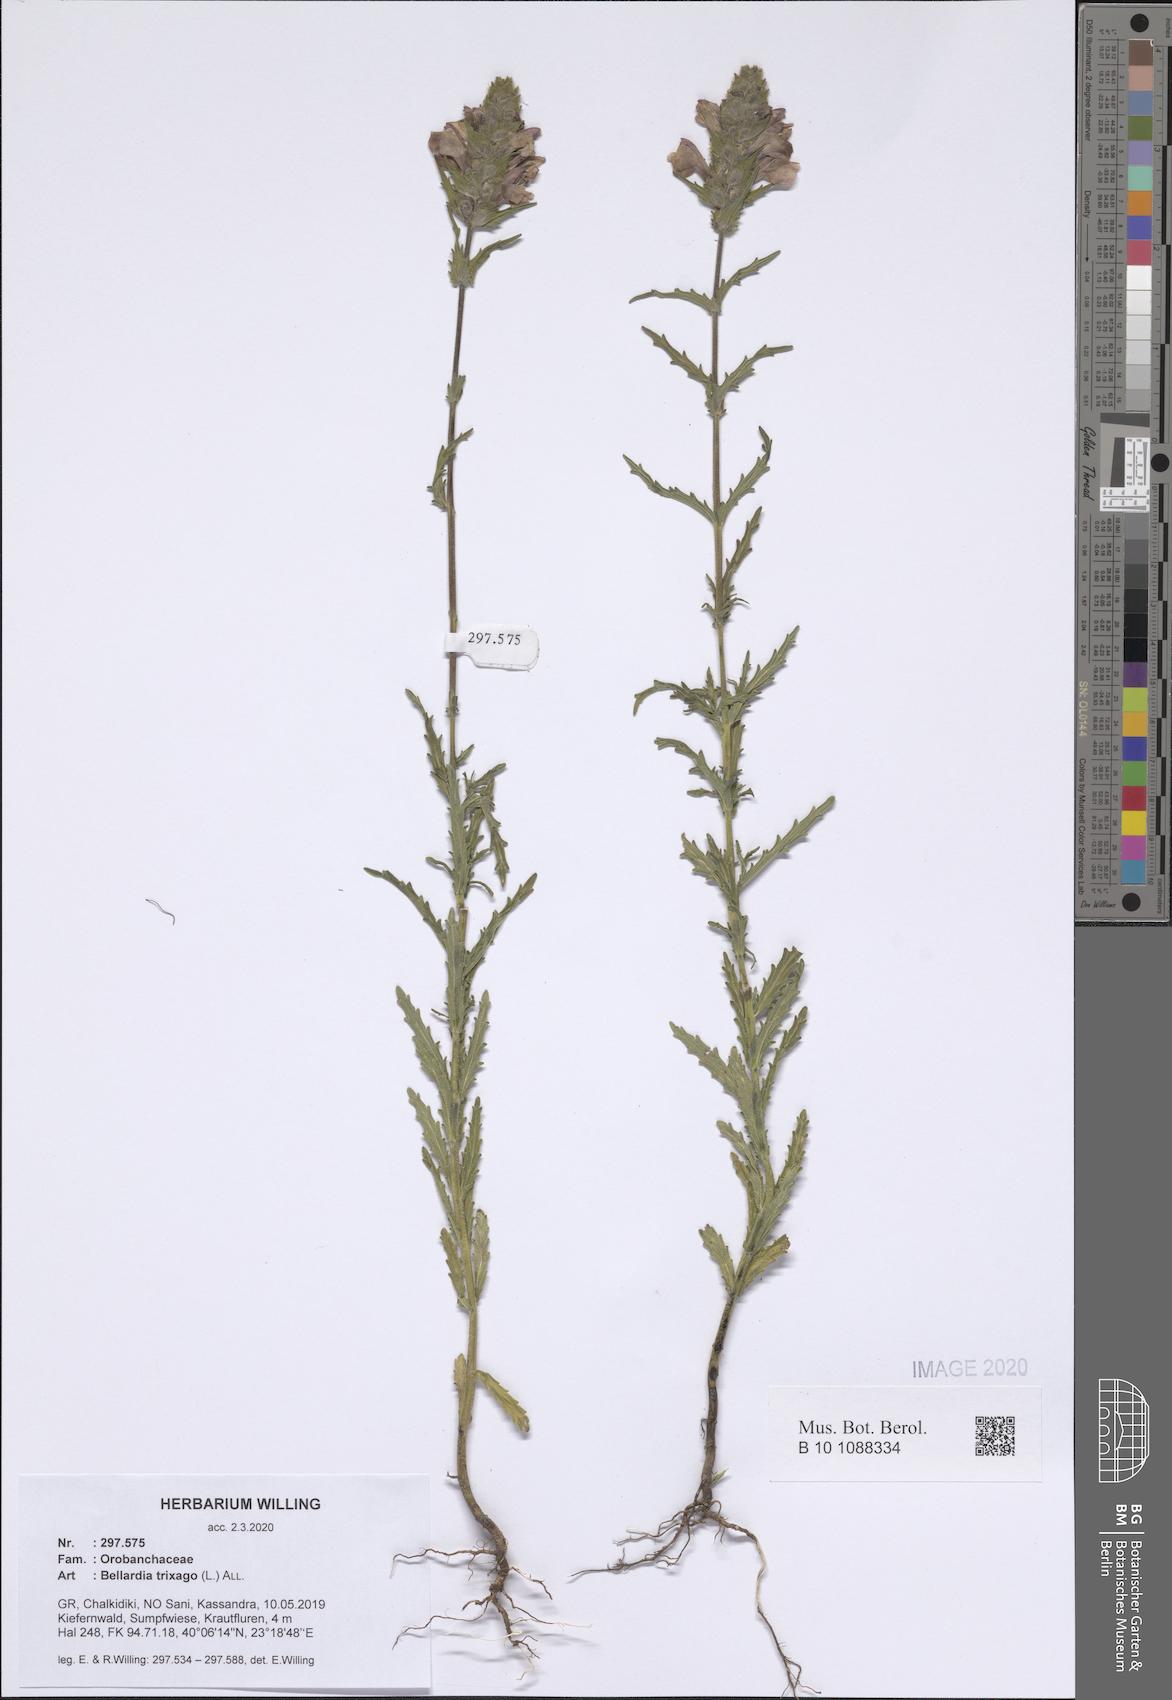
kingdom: Plantae
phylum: Tracheophyta
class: Magnoliopsida
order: Lamiales
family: Orobanchaceae
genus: Bellardia
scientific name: Bellardia trixago
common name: Mediterranean lineseed
